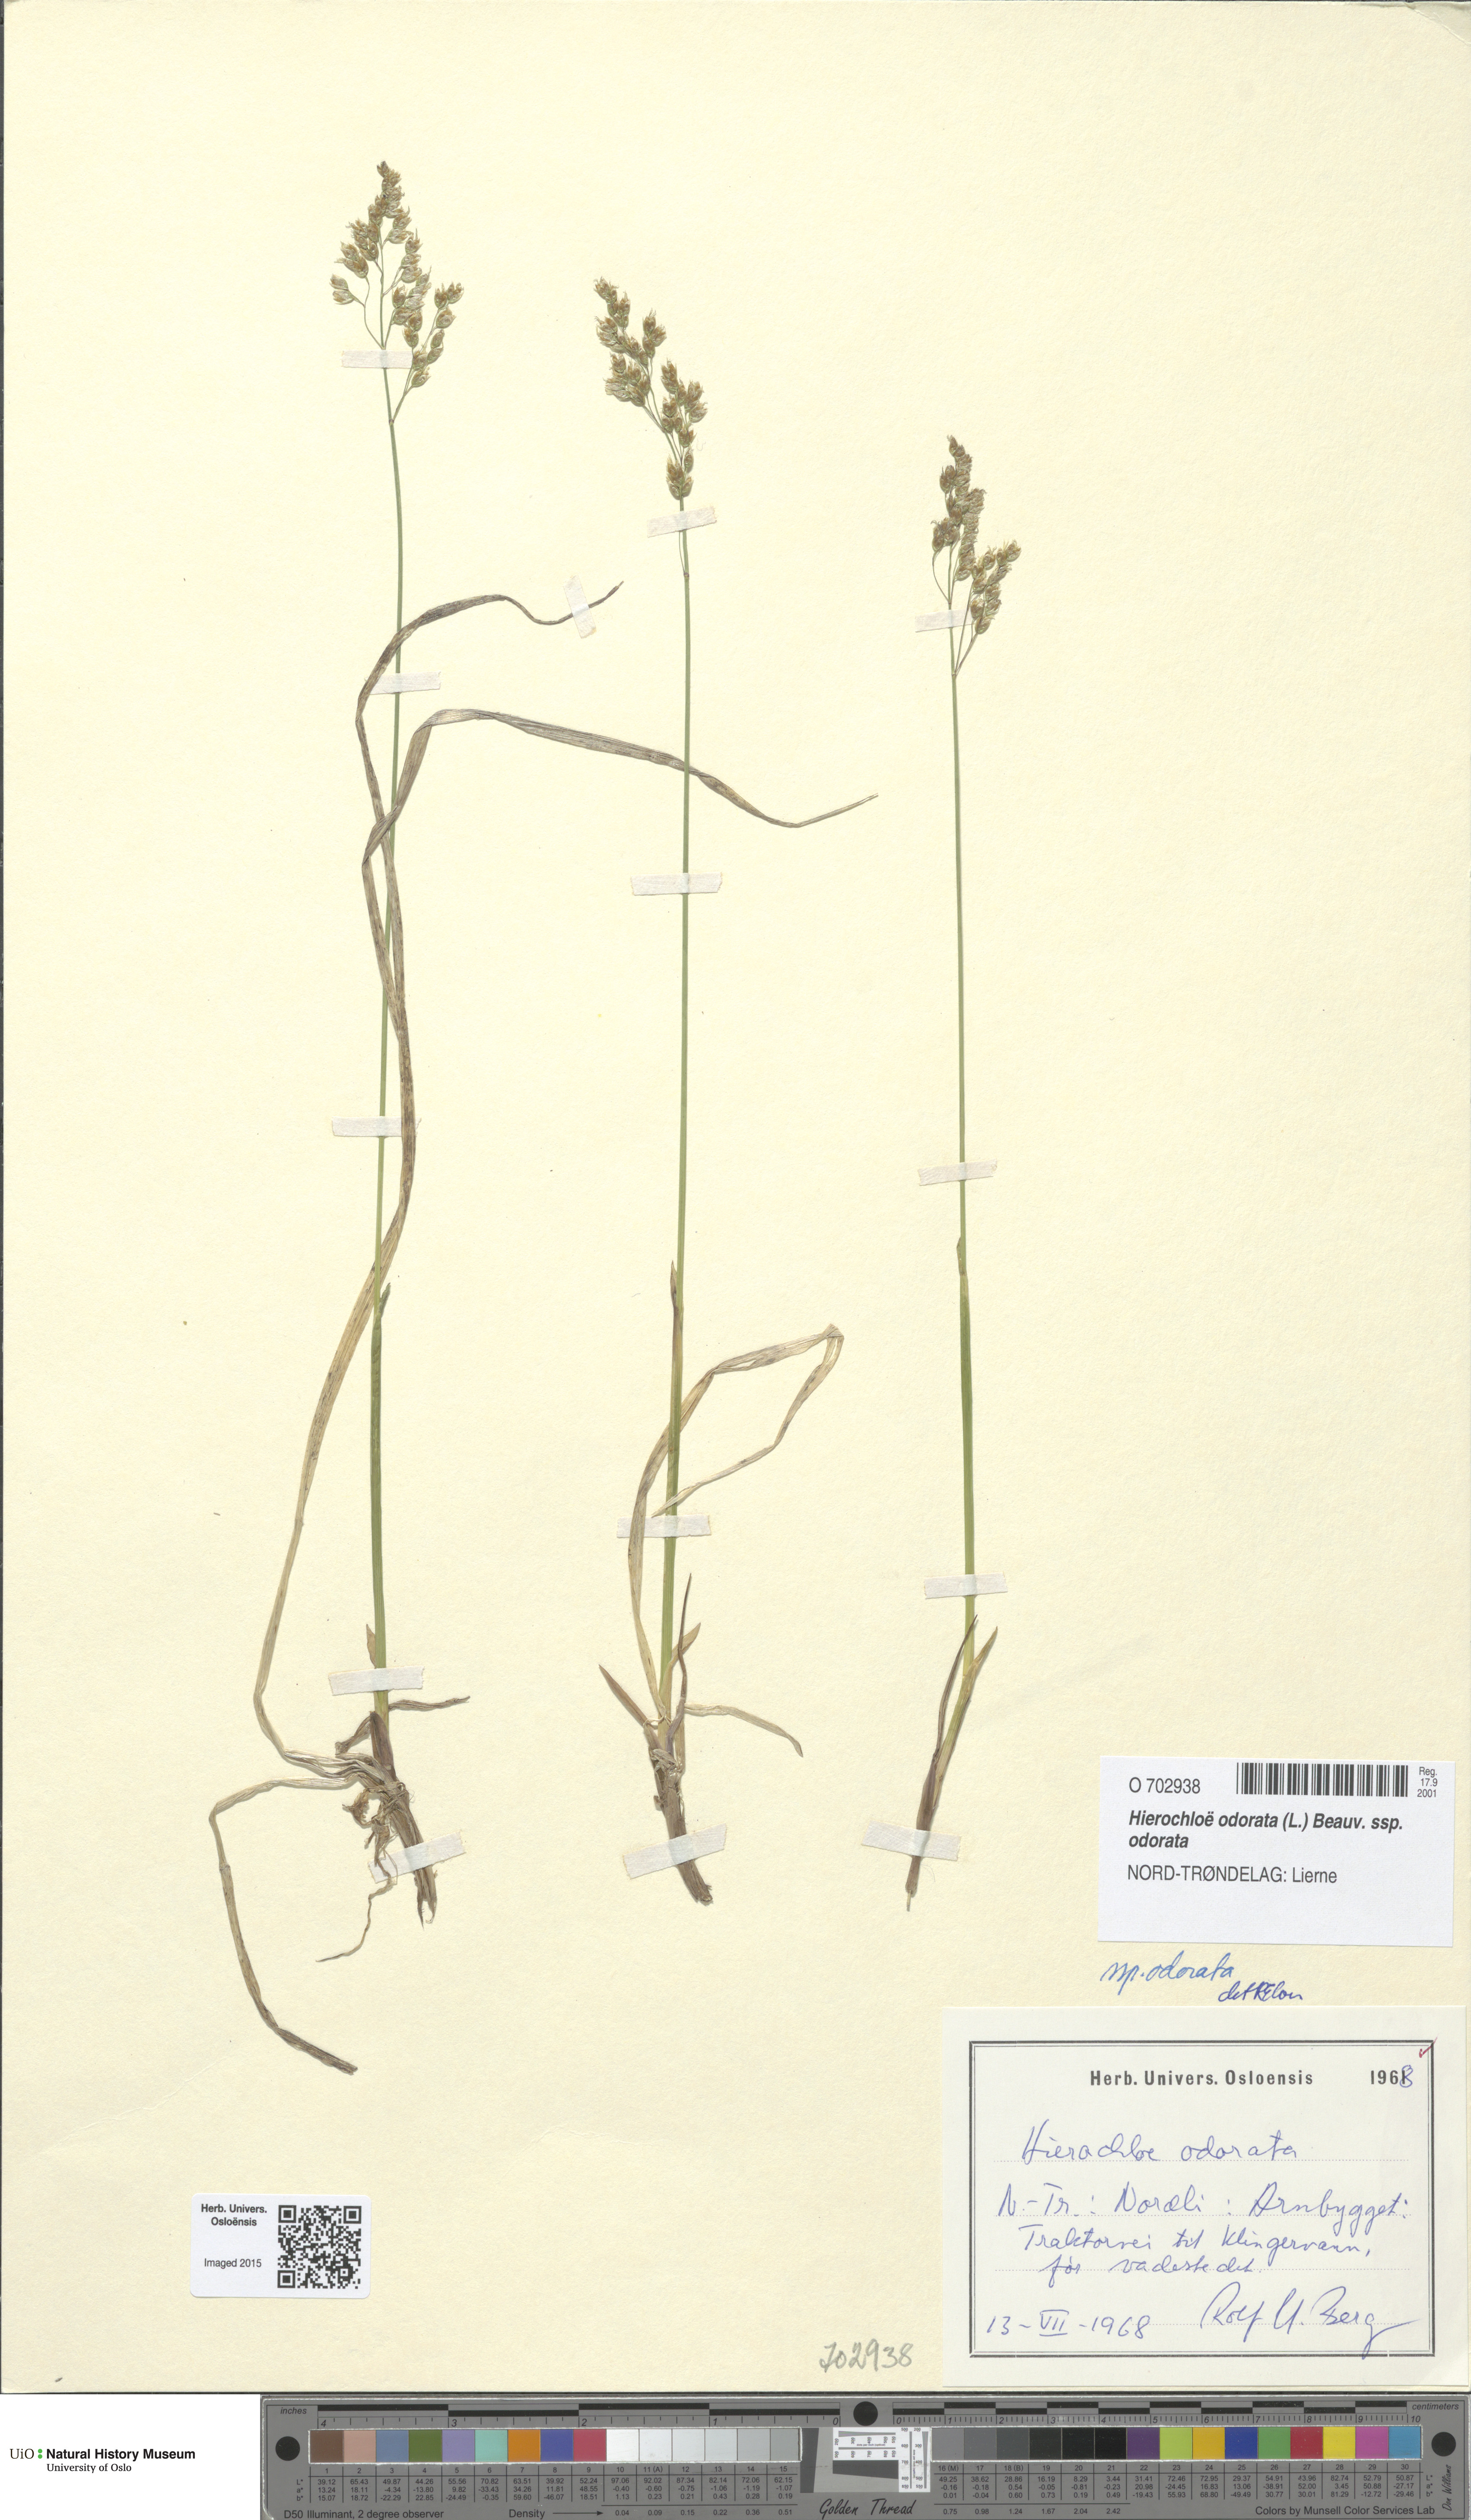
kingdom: Plantae
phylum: Tracheophyta
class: Liliopsida
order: Poales
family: Poaceae
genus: Anthoxanthum
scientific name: Anthoxanthum nitens
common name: Holy grass
